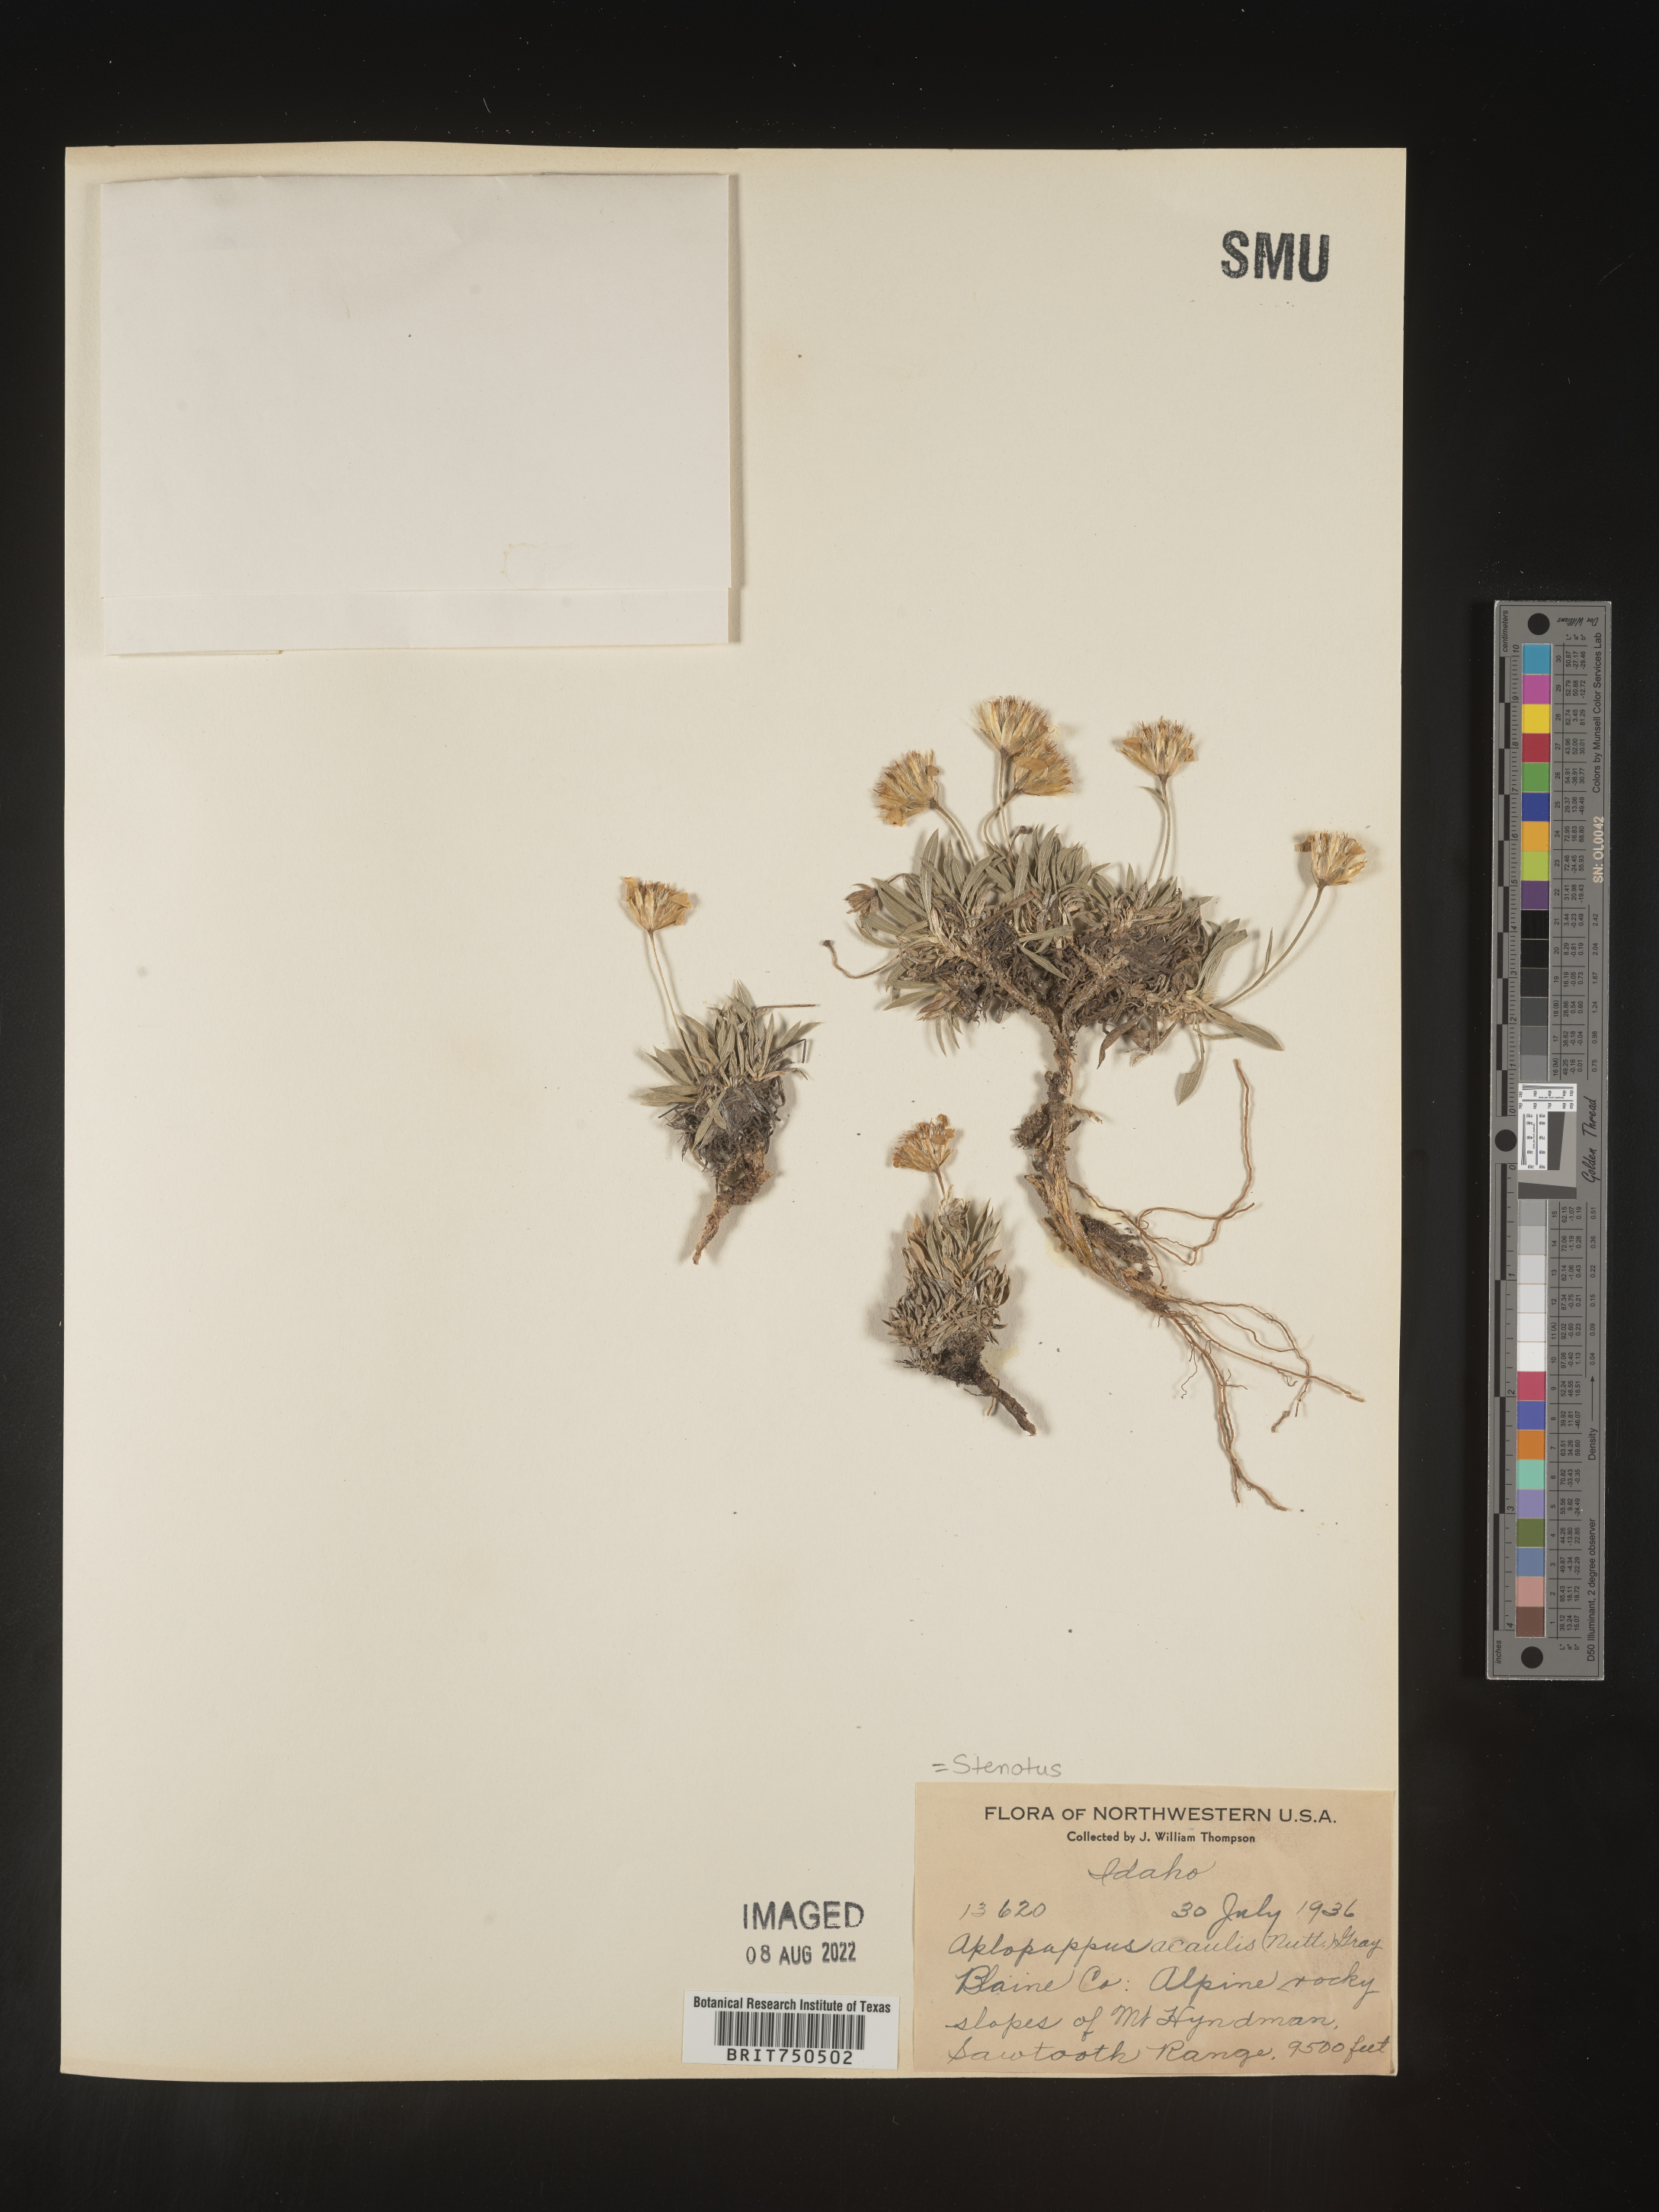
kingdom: Plantae
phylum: Tracheophyta
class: Magnoliopsida
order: Asterales
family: Asteraceae
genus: Stenotus
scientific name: Stenotus acaulis
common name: Stemless goldenweed
